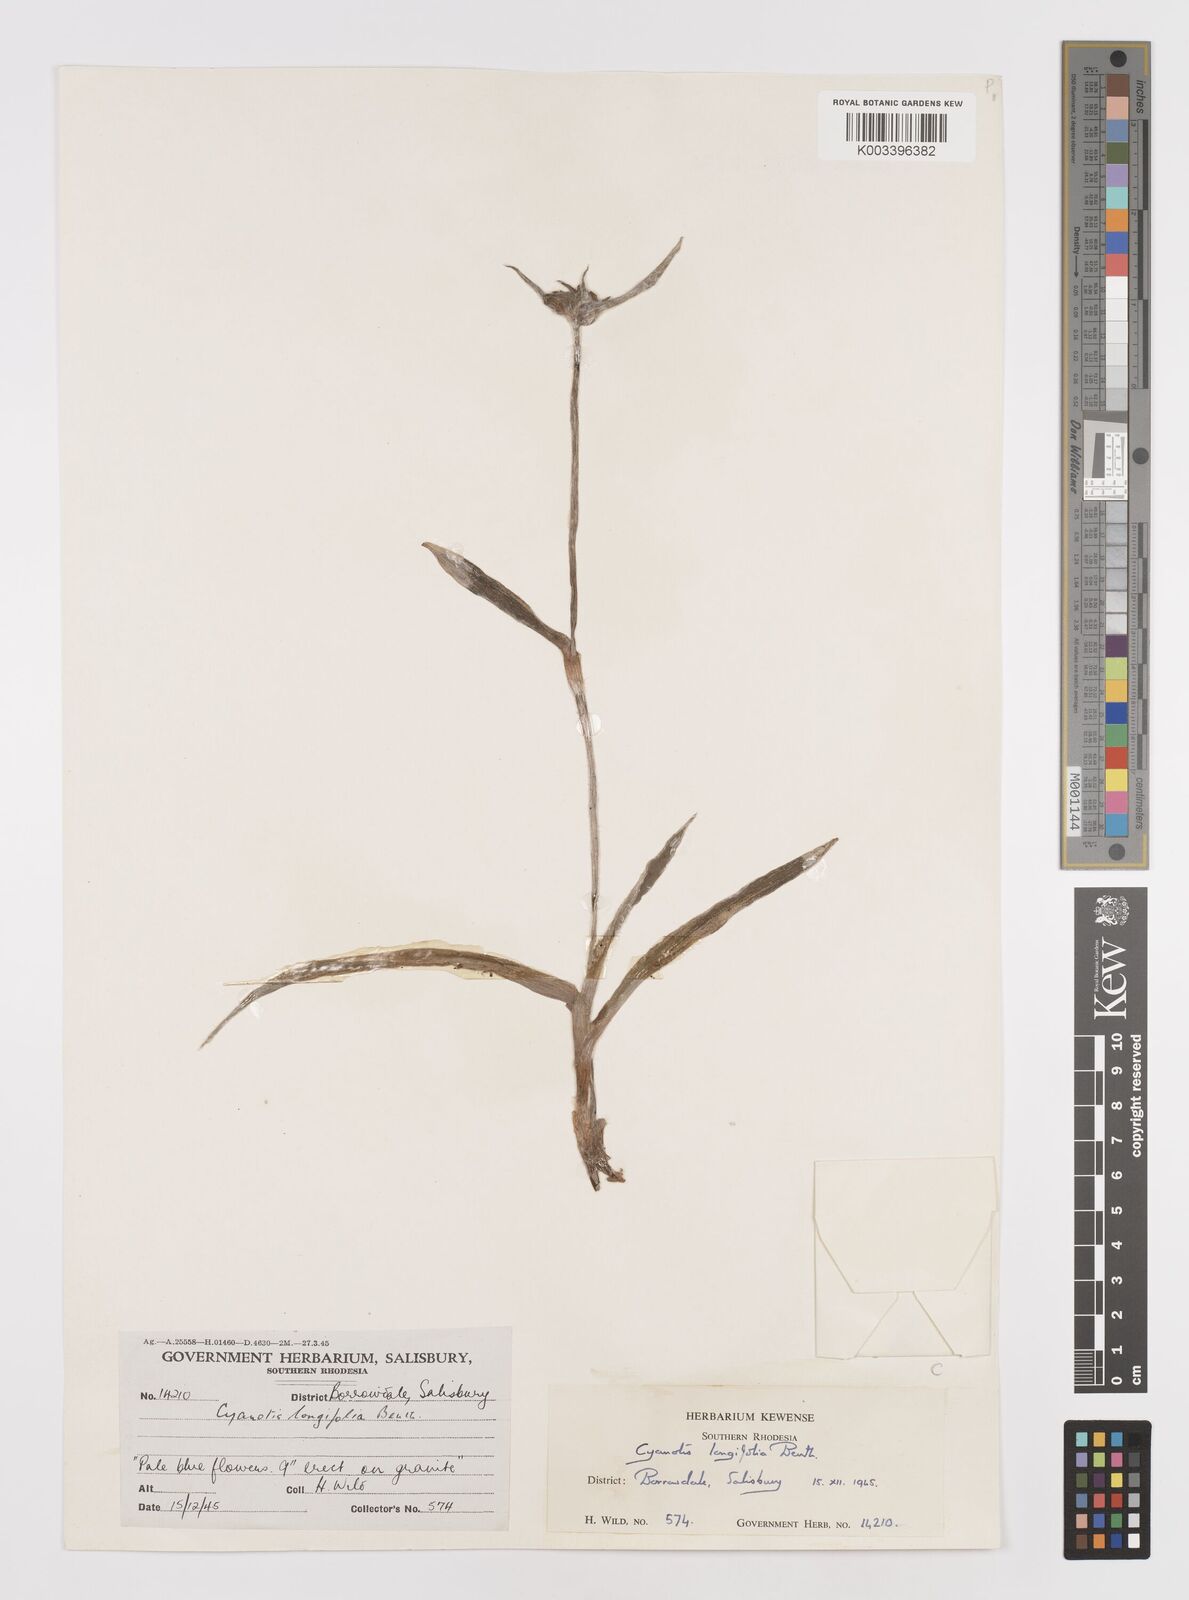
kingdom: Plantae
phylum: Tracheophyta
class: Liliopsida
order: Commelinales
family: Commelinaceae
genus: Cyanotis
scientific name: Cyanotis longifolia
